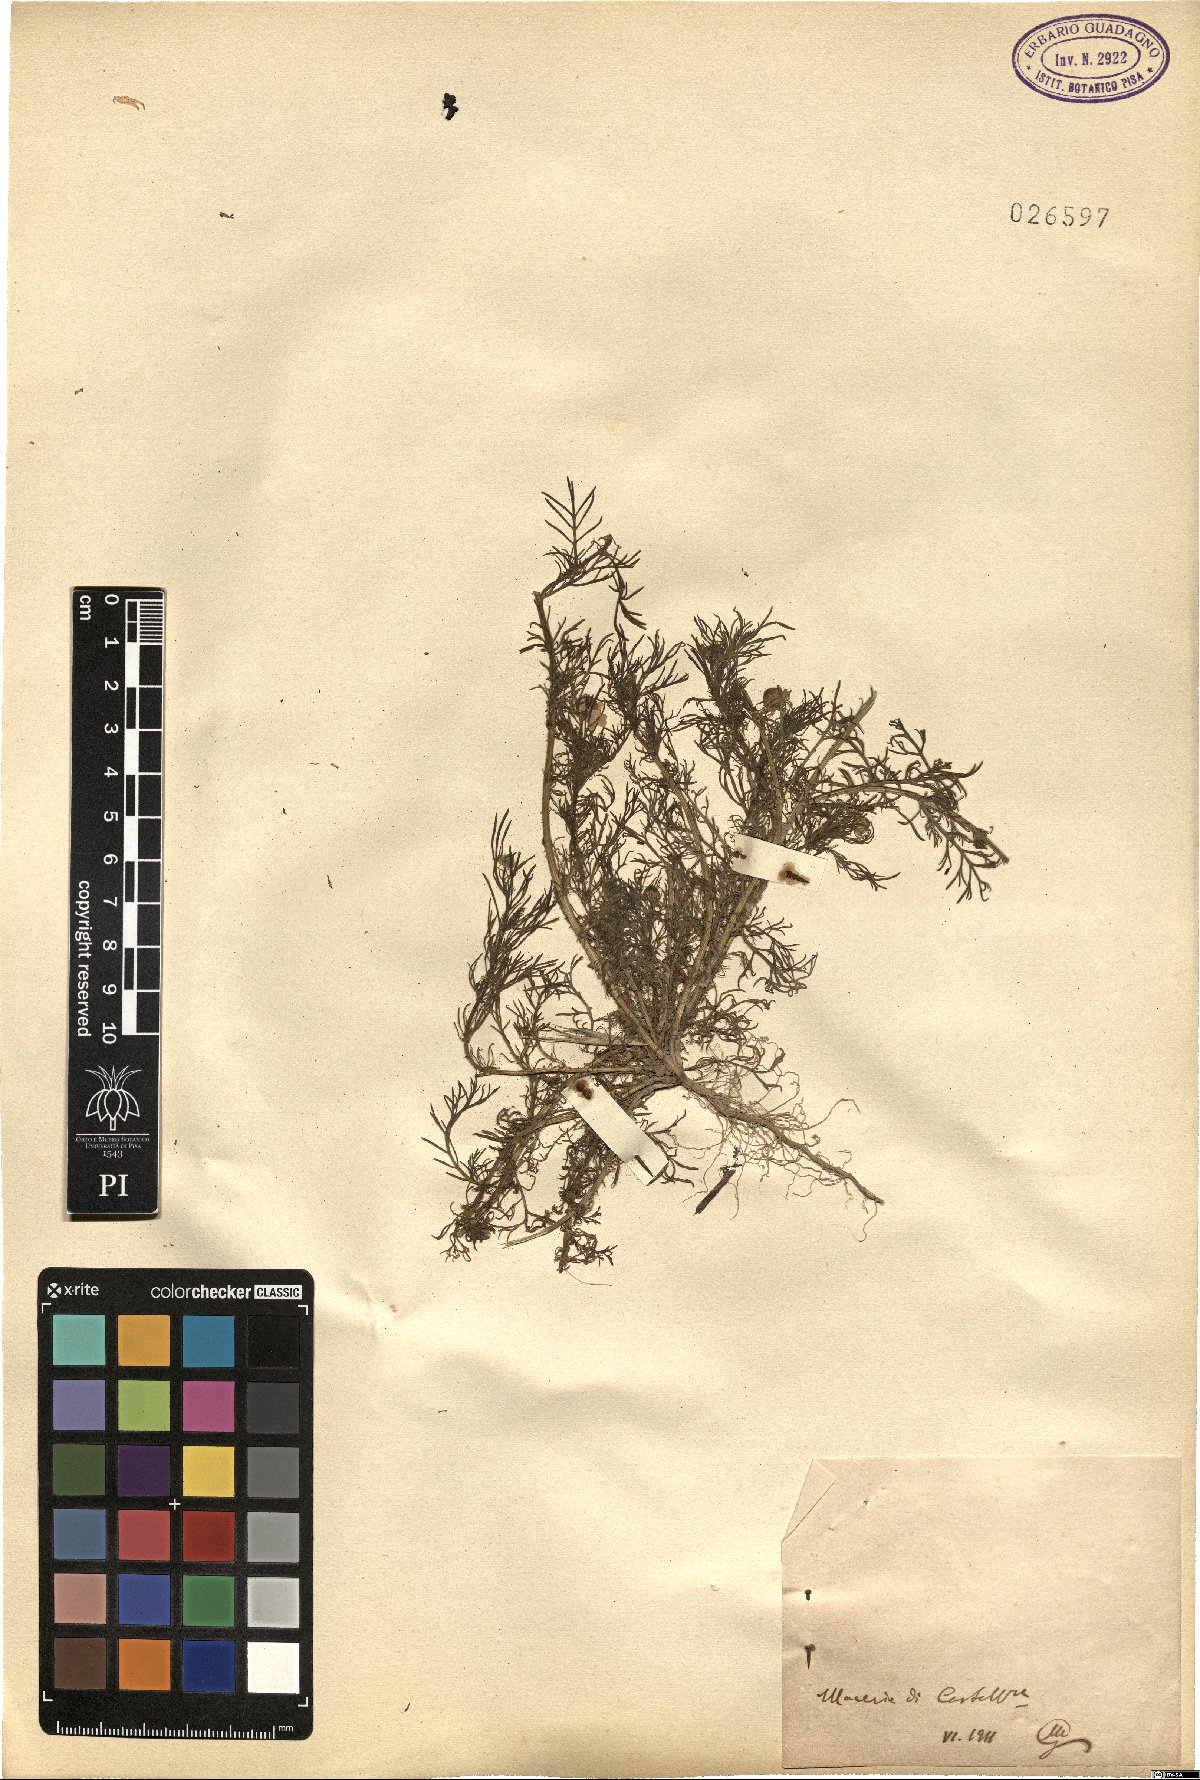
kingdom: Plantae
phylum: Tracheophyta
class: Magnoliopsida
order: Asterales
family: Asteraceae
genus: Matricaria
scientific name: Matricaria
